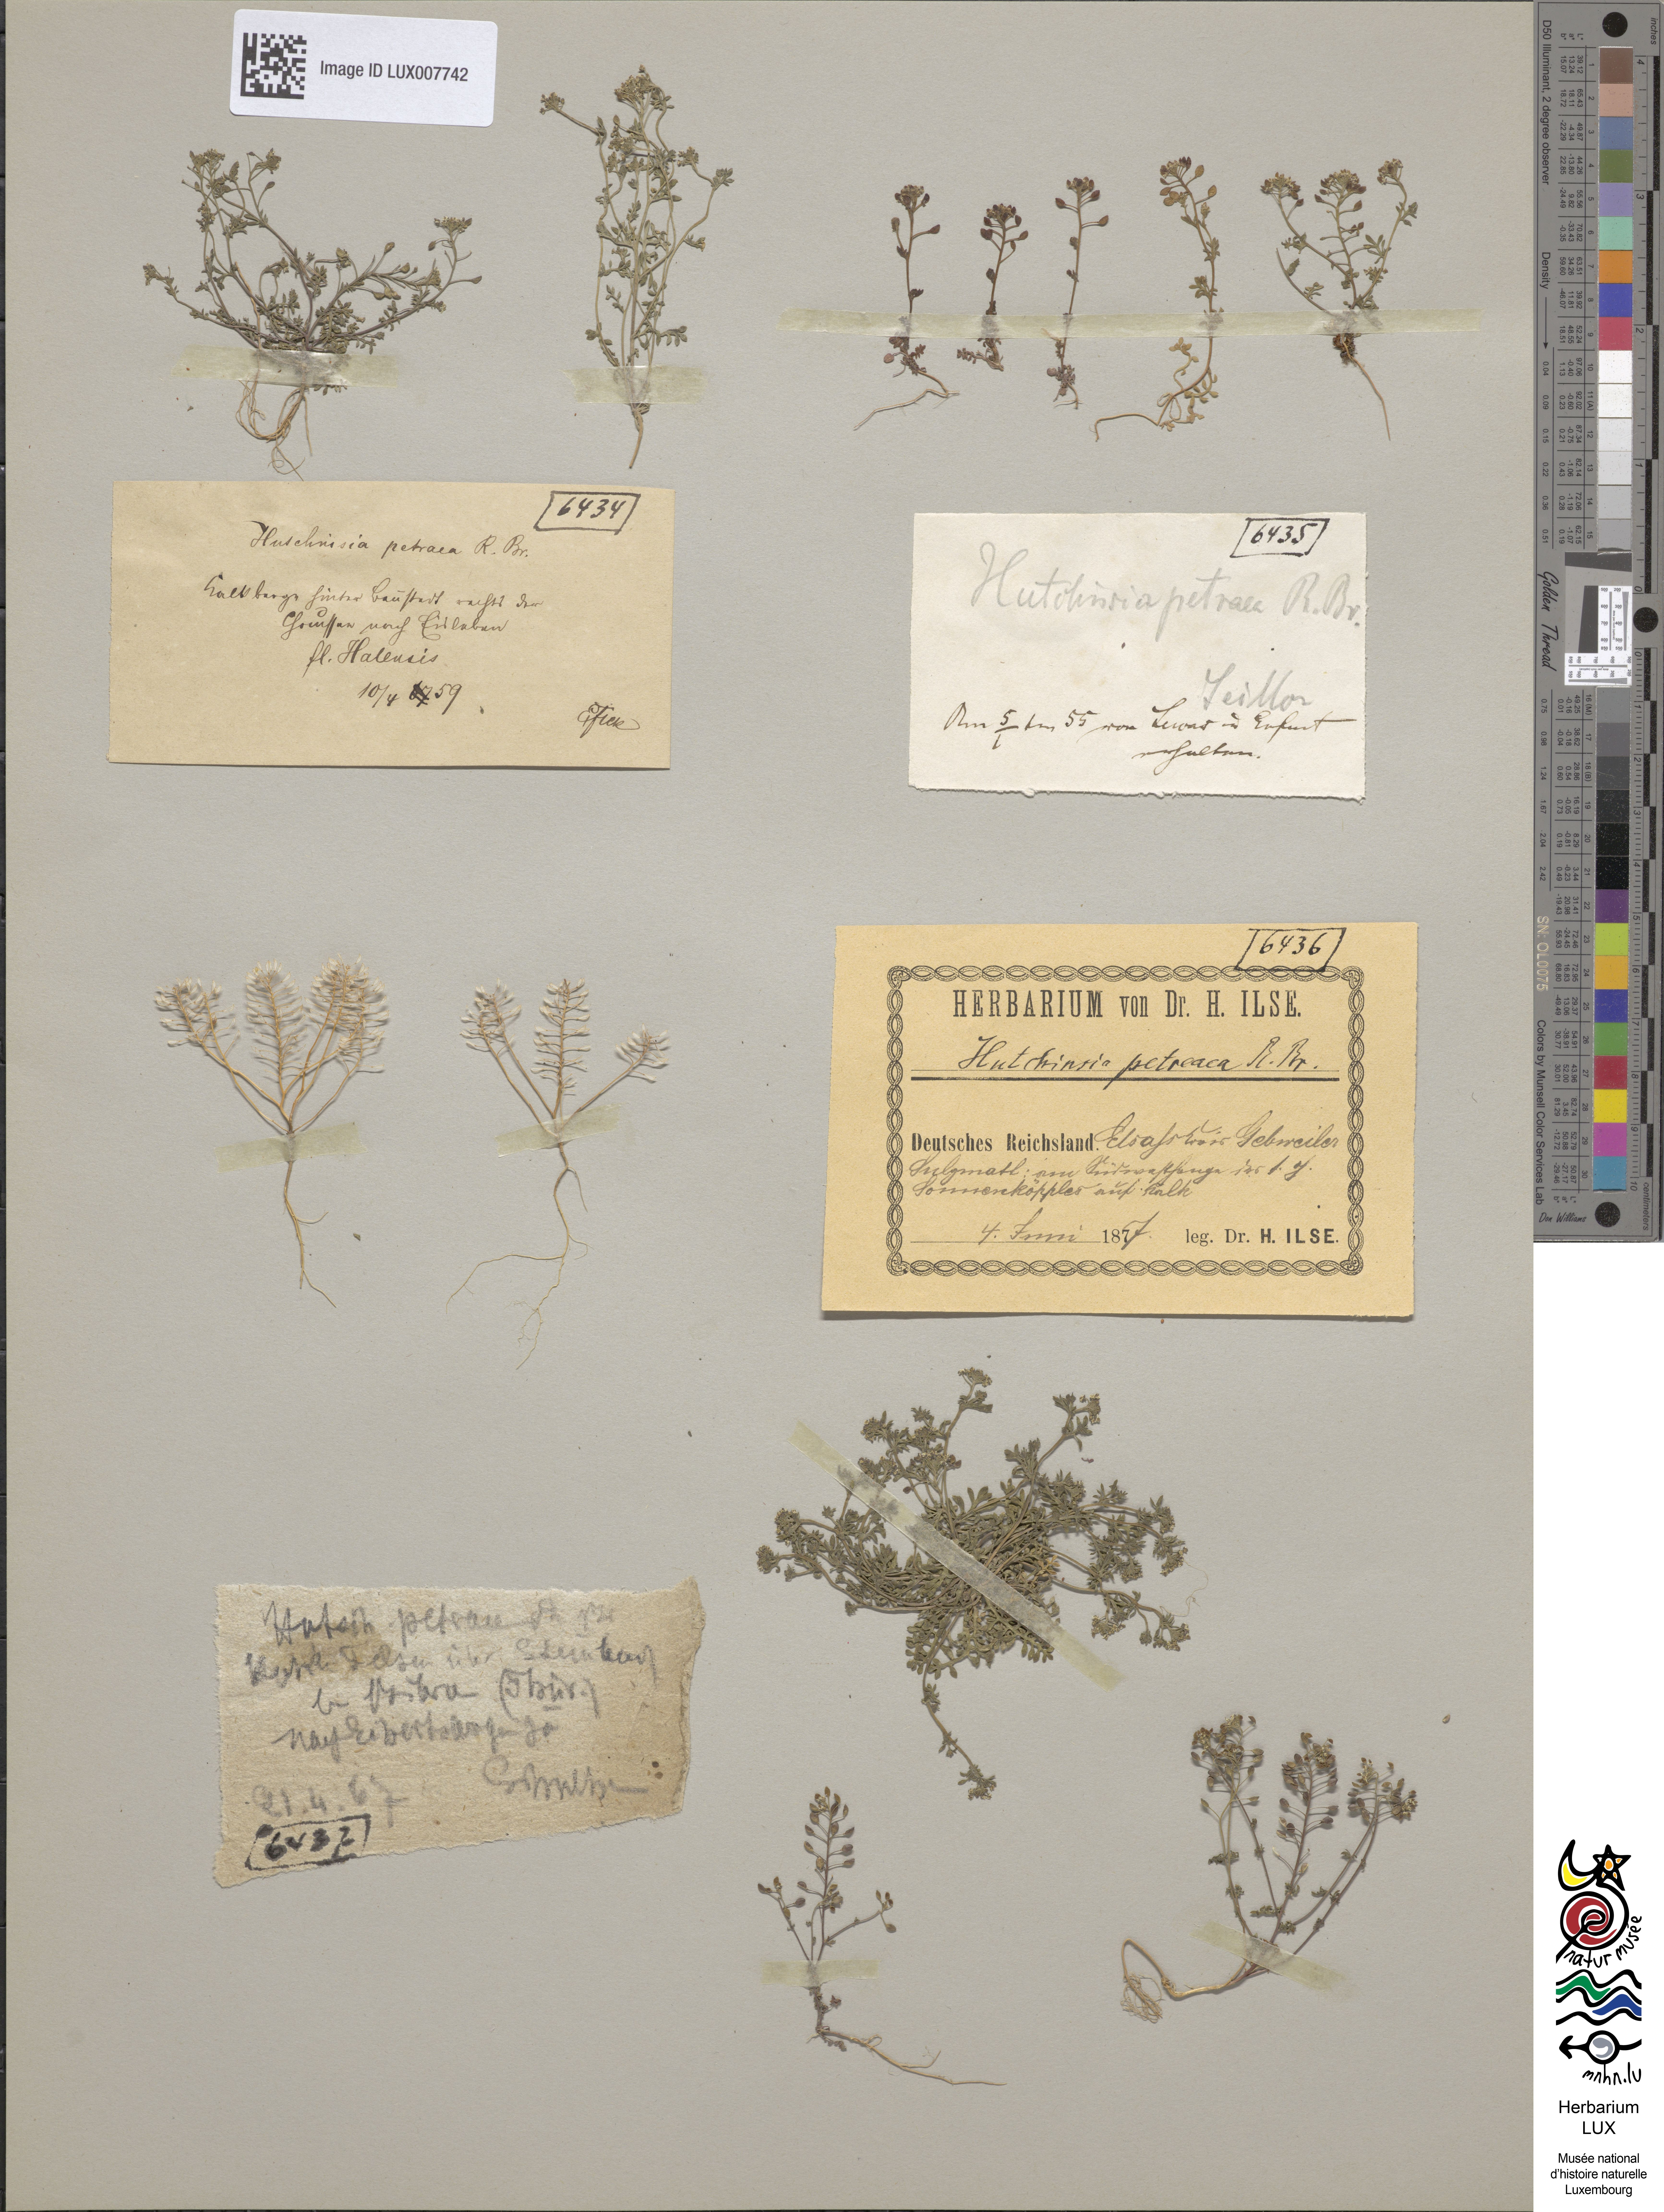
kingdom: Plantae
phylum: Tracheophyta
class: Magnoliopsida
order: Brassicales
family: Brassicaceae
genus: Hornungia
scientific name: Hornungia petraea
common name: Hutchinsia
